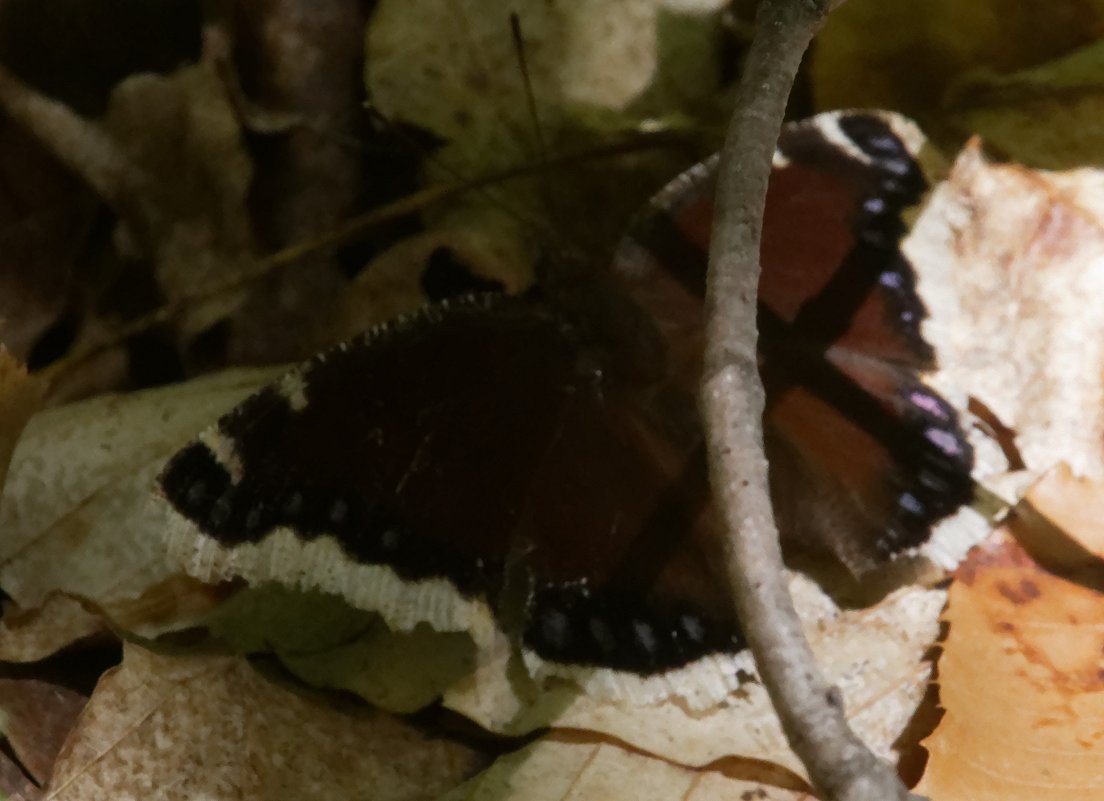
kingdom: Animalia
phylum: Arthropoda
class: Insecta
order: Lepidoptera
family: Nymphalidae
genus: Nymphalis
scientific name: Nymphalis antiopa
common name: Mourning Cloak
